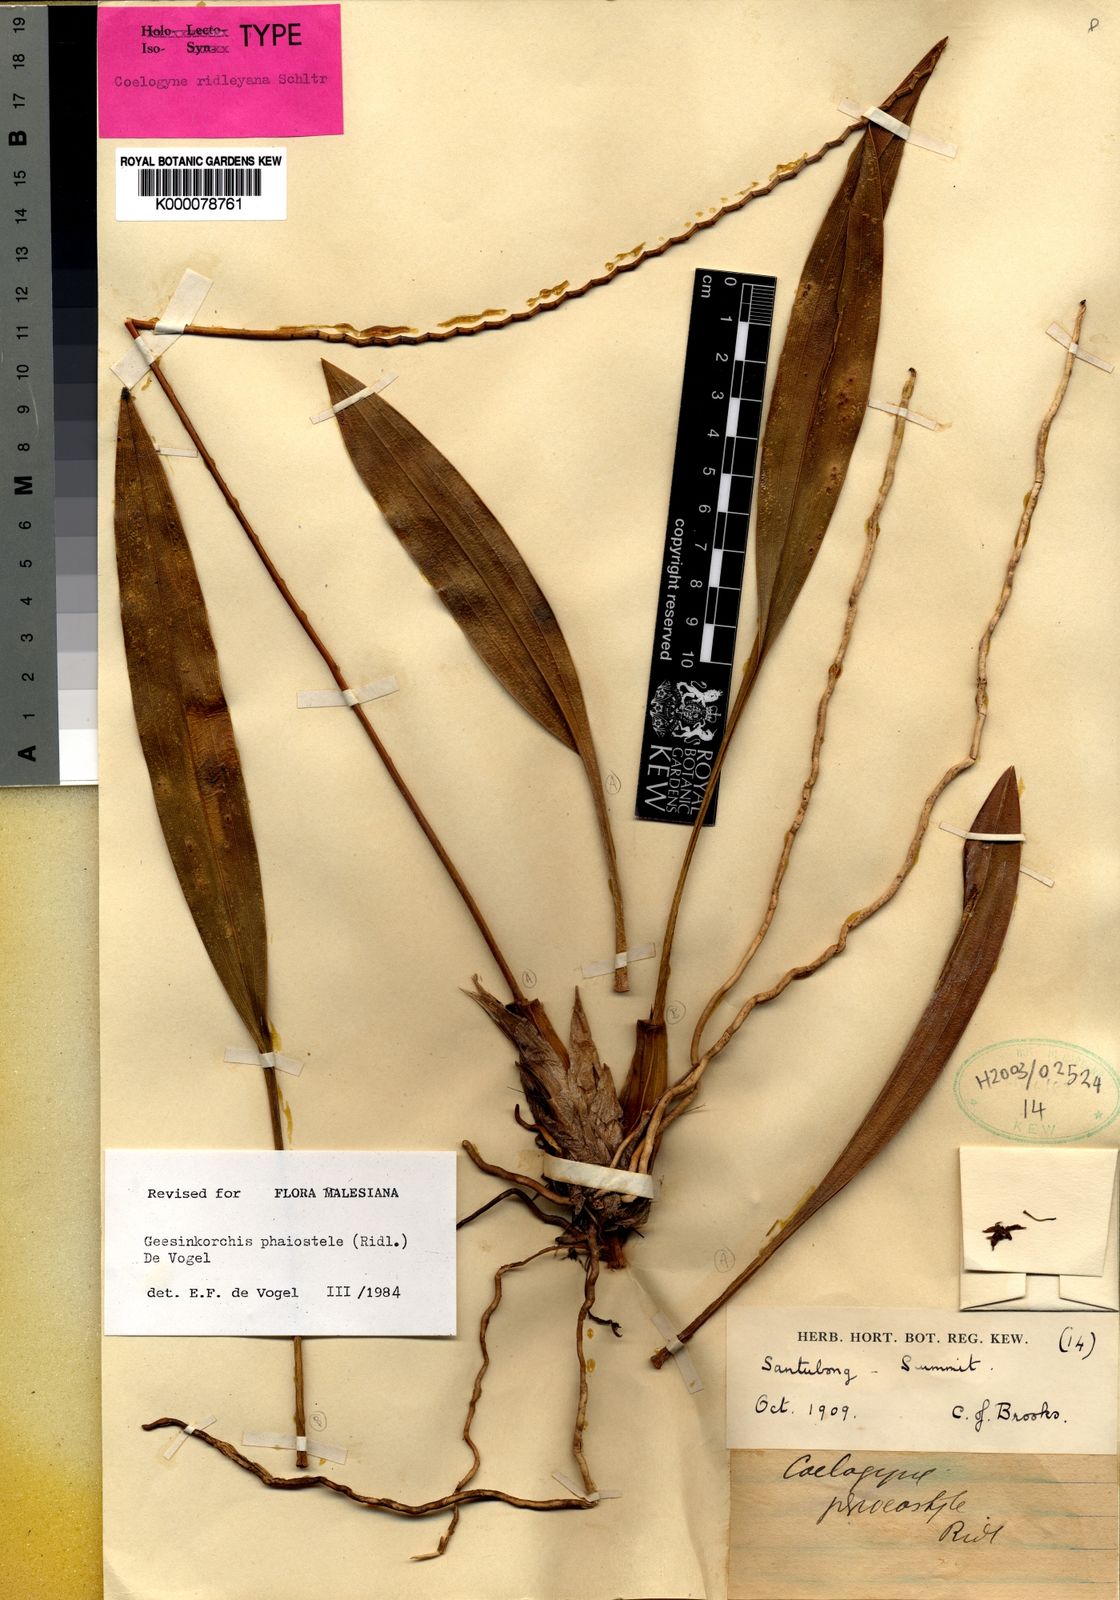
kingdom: Plantae
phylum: Tracheophyta
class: Liliopsida
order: Asparagales
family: Orchidaceae
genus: Coelogyne
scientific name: Coelogyne phaiostele
